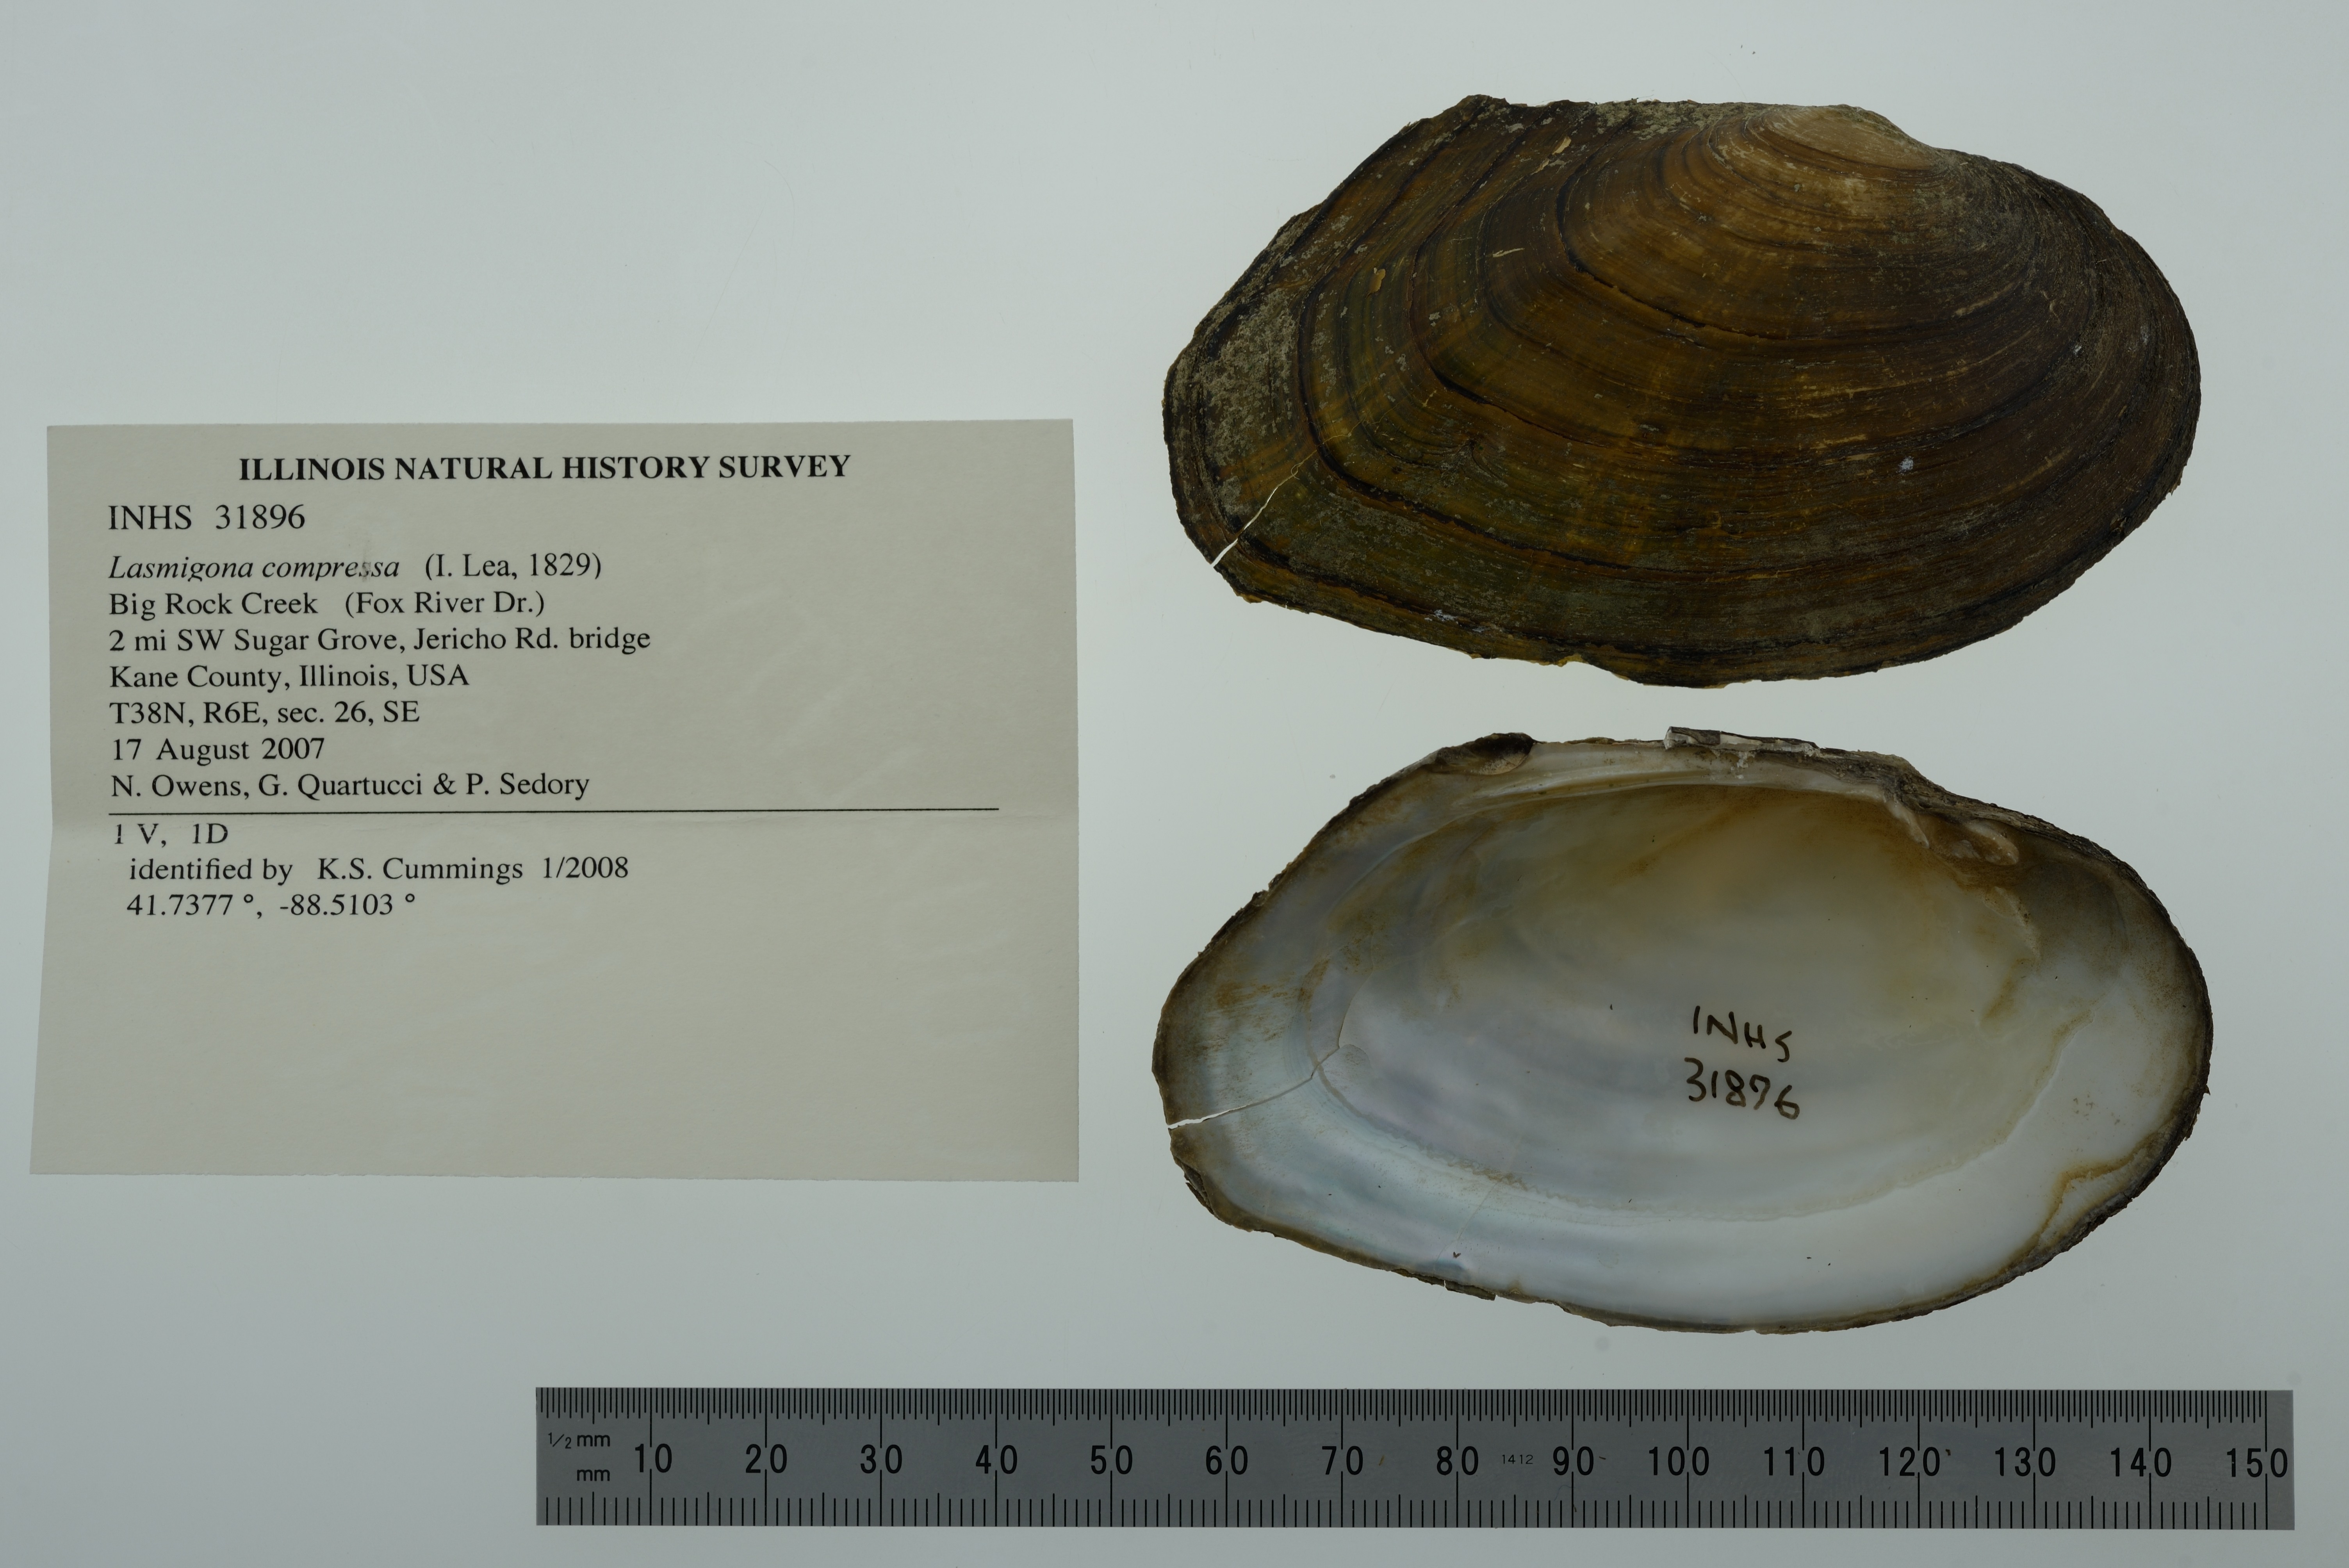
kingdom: Animalia
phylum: Mollusca
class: Bivalvia
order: Unionida
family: Unionidae
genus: Lasmigona
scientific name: Lasmigona compressa
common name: Creek heelsplitter
